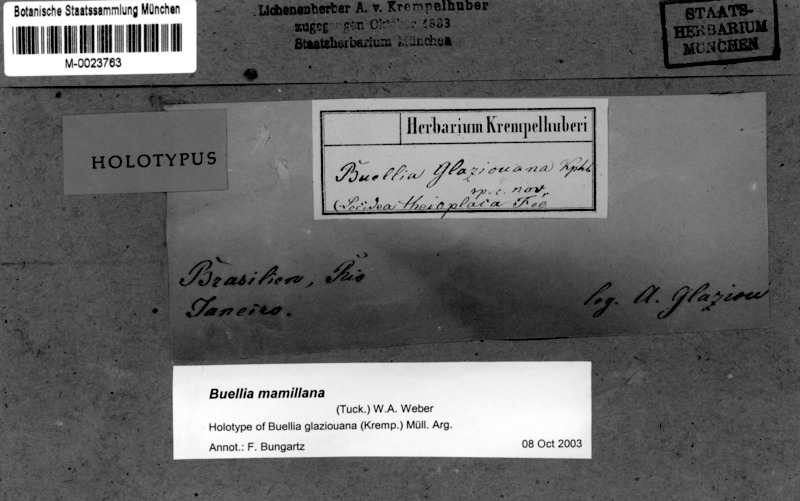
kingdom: Fungi
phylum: Ascomycota
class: Lecanoromycetes
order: Caliciales
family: Caliciaceae
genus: Buellia
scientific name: Buellia mamillana
